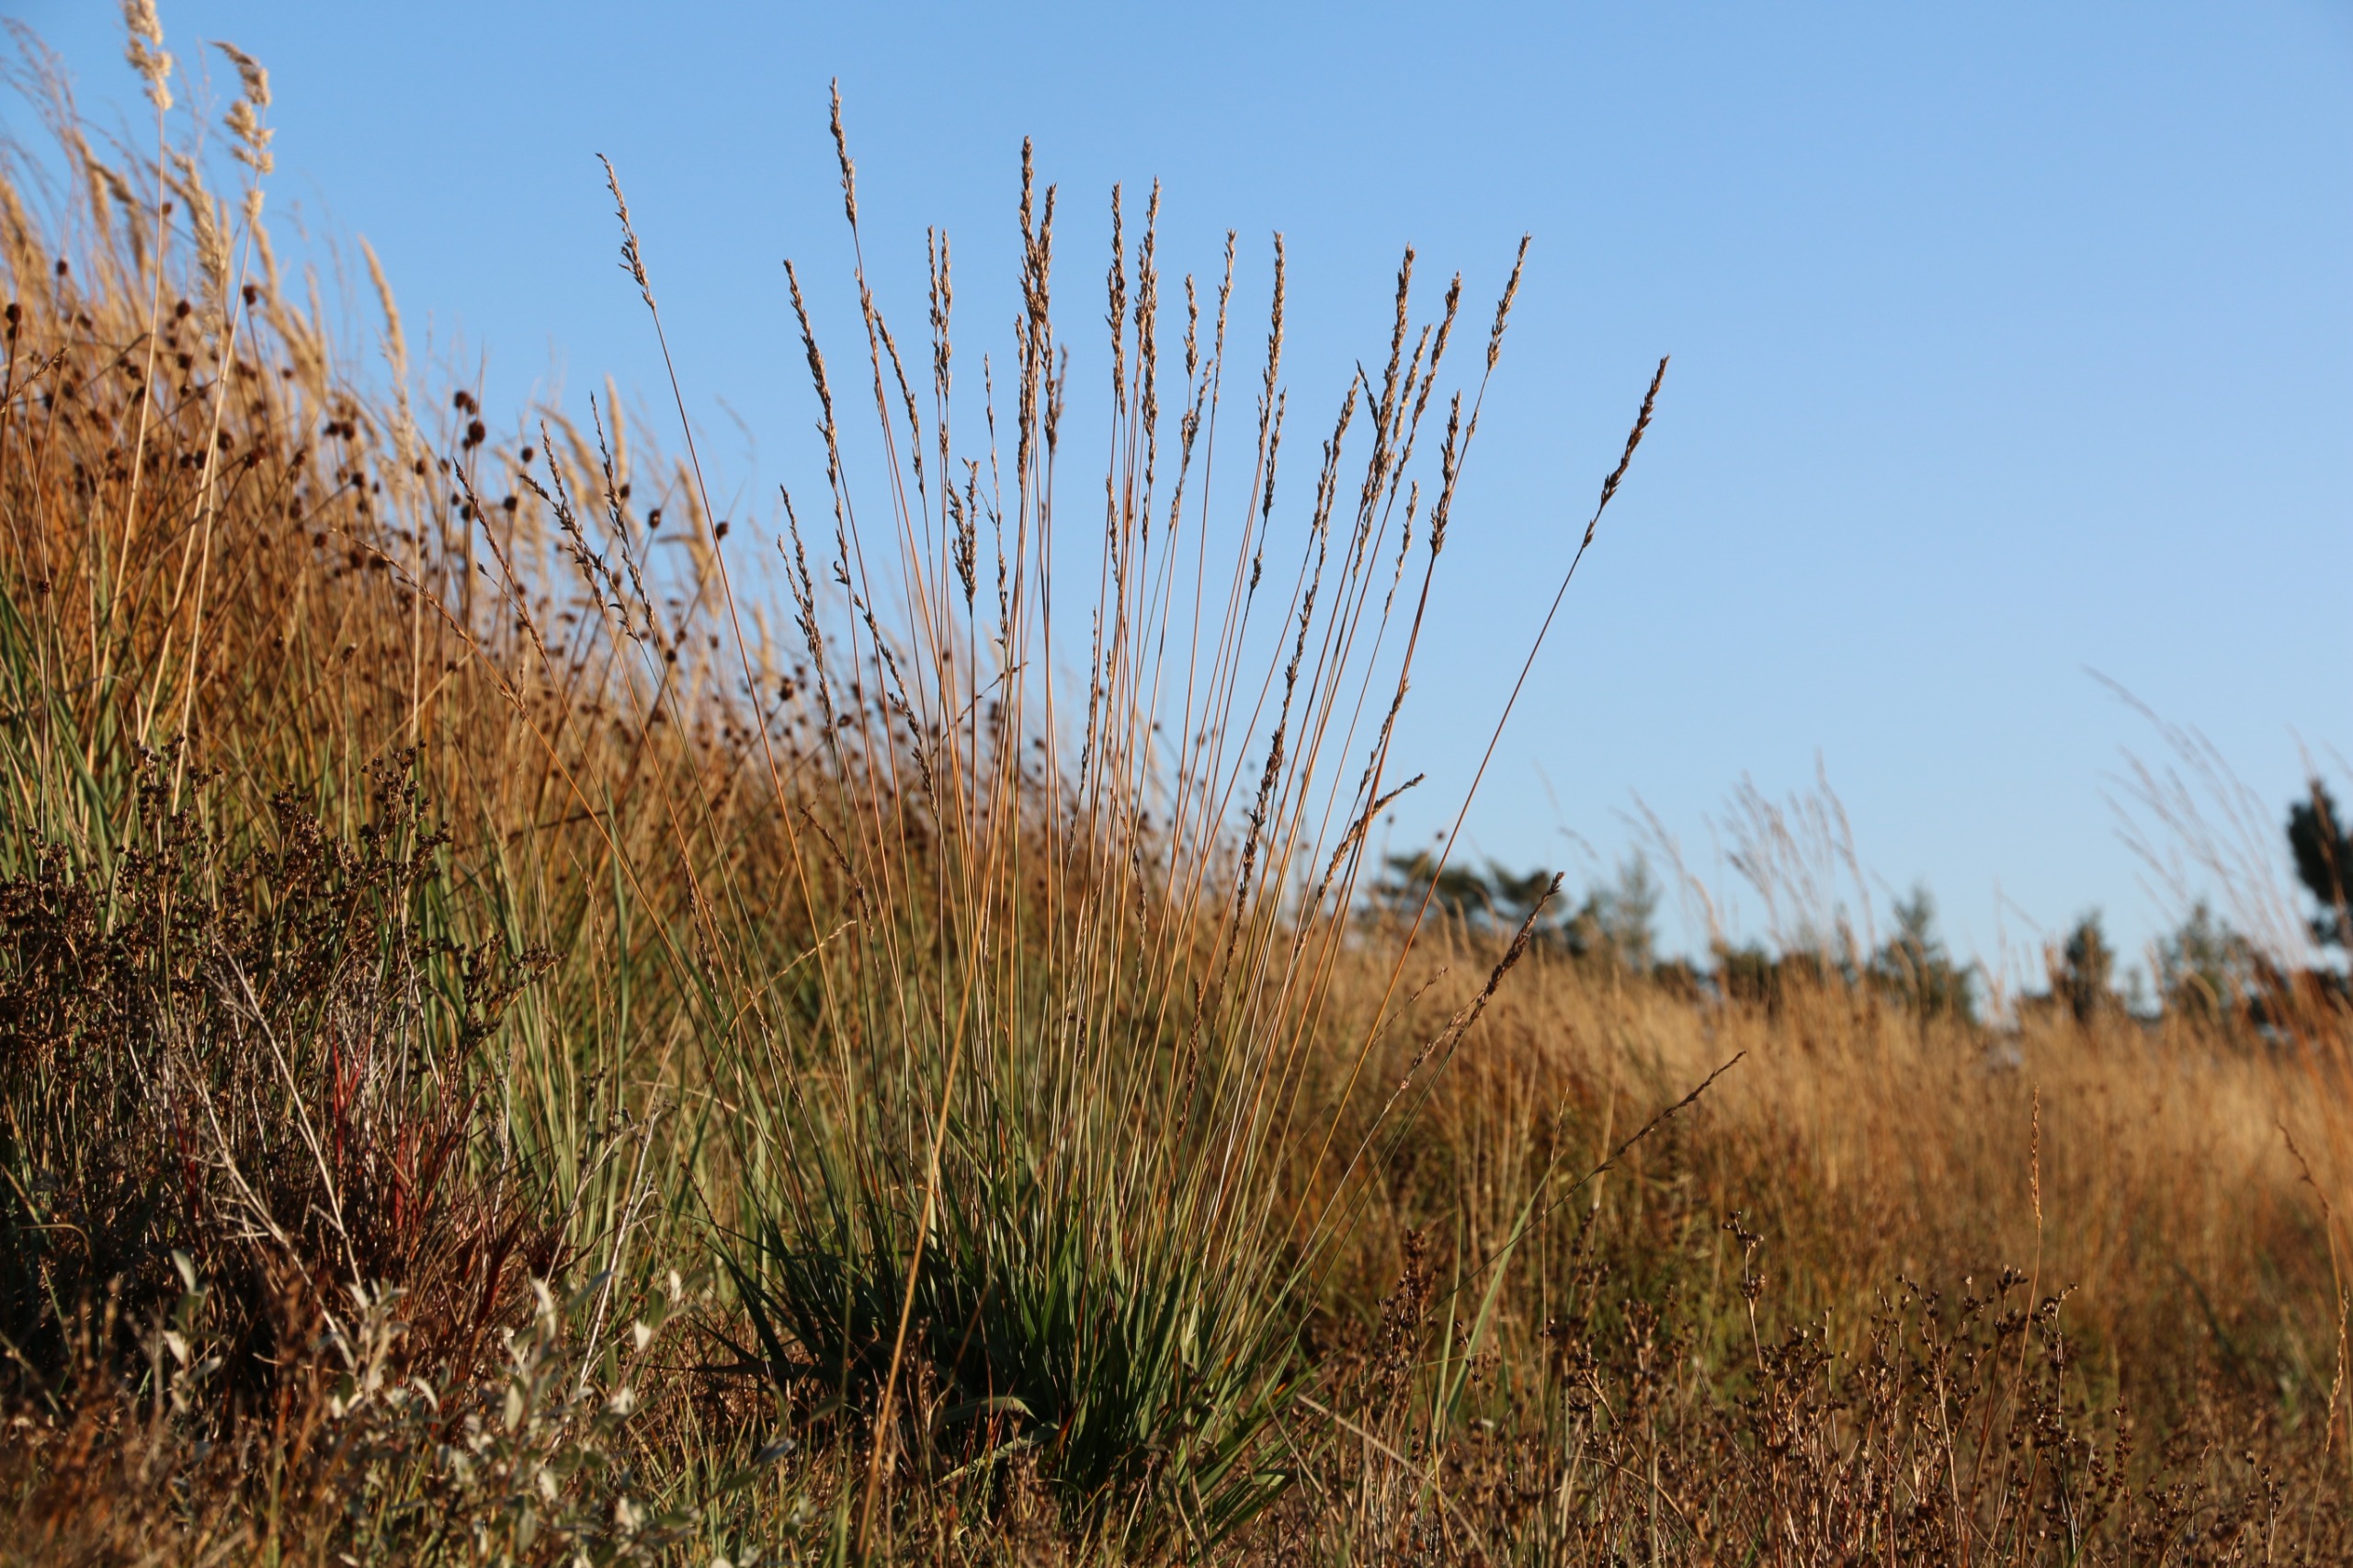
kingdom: Plantae
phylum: Tracheophyta
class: Liliopsida
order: Poales
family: Poaceae
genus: Molinia
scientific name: Molinia caerulea
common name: Blåtop
